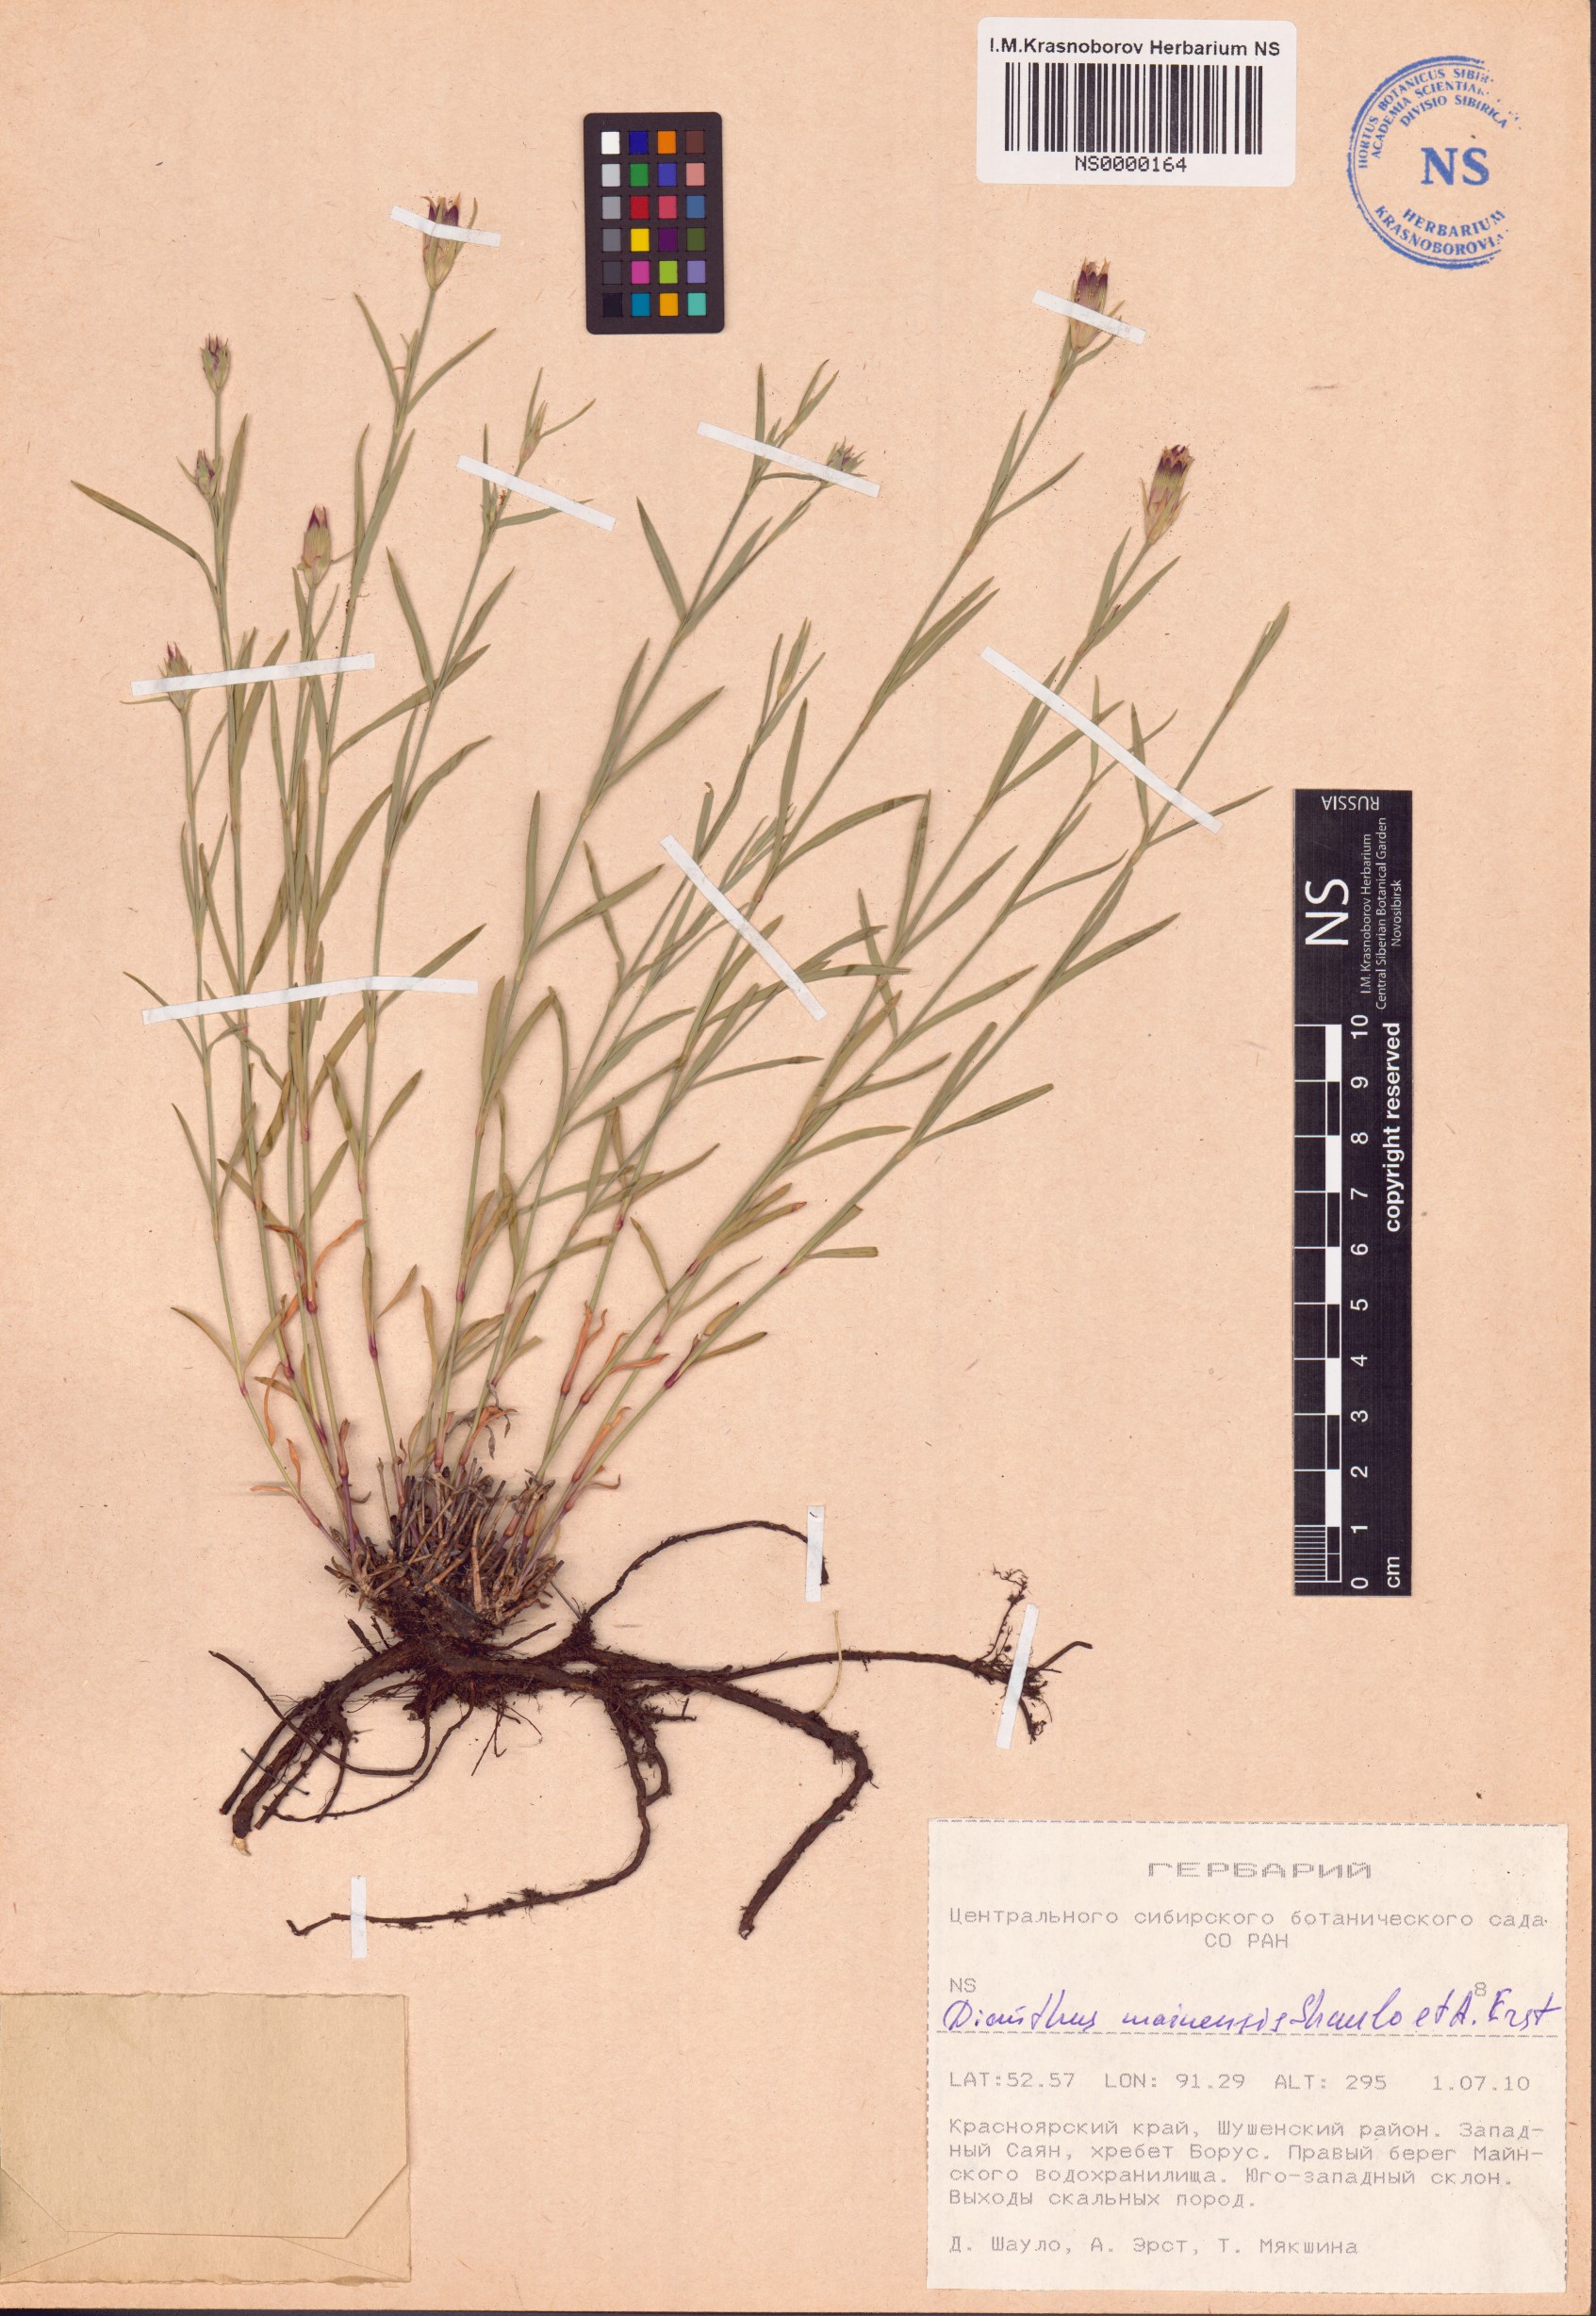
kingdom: Plantae
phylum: Tracheophyta
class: Magnoliopsida
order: Caryophyllales
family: Caryophyllaceae
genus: Dianthus
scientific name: Dianthus mainensis
